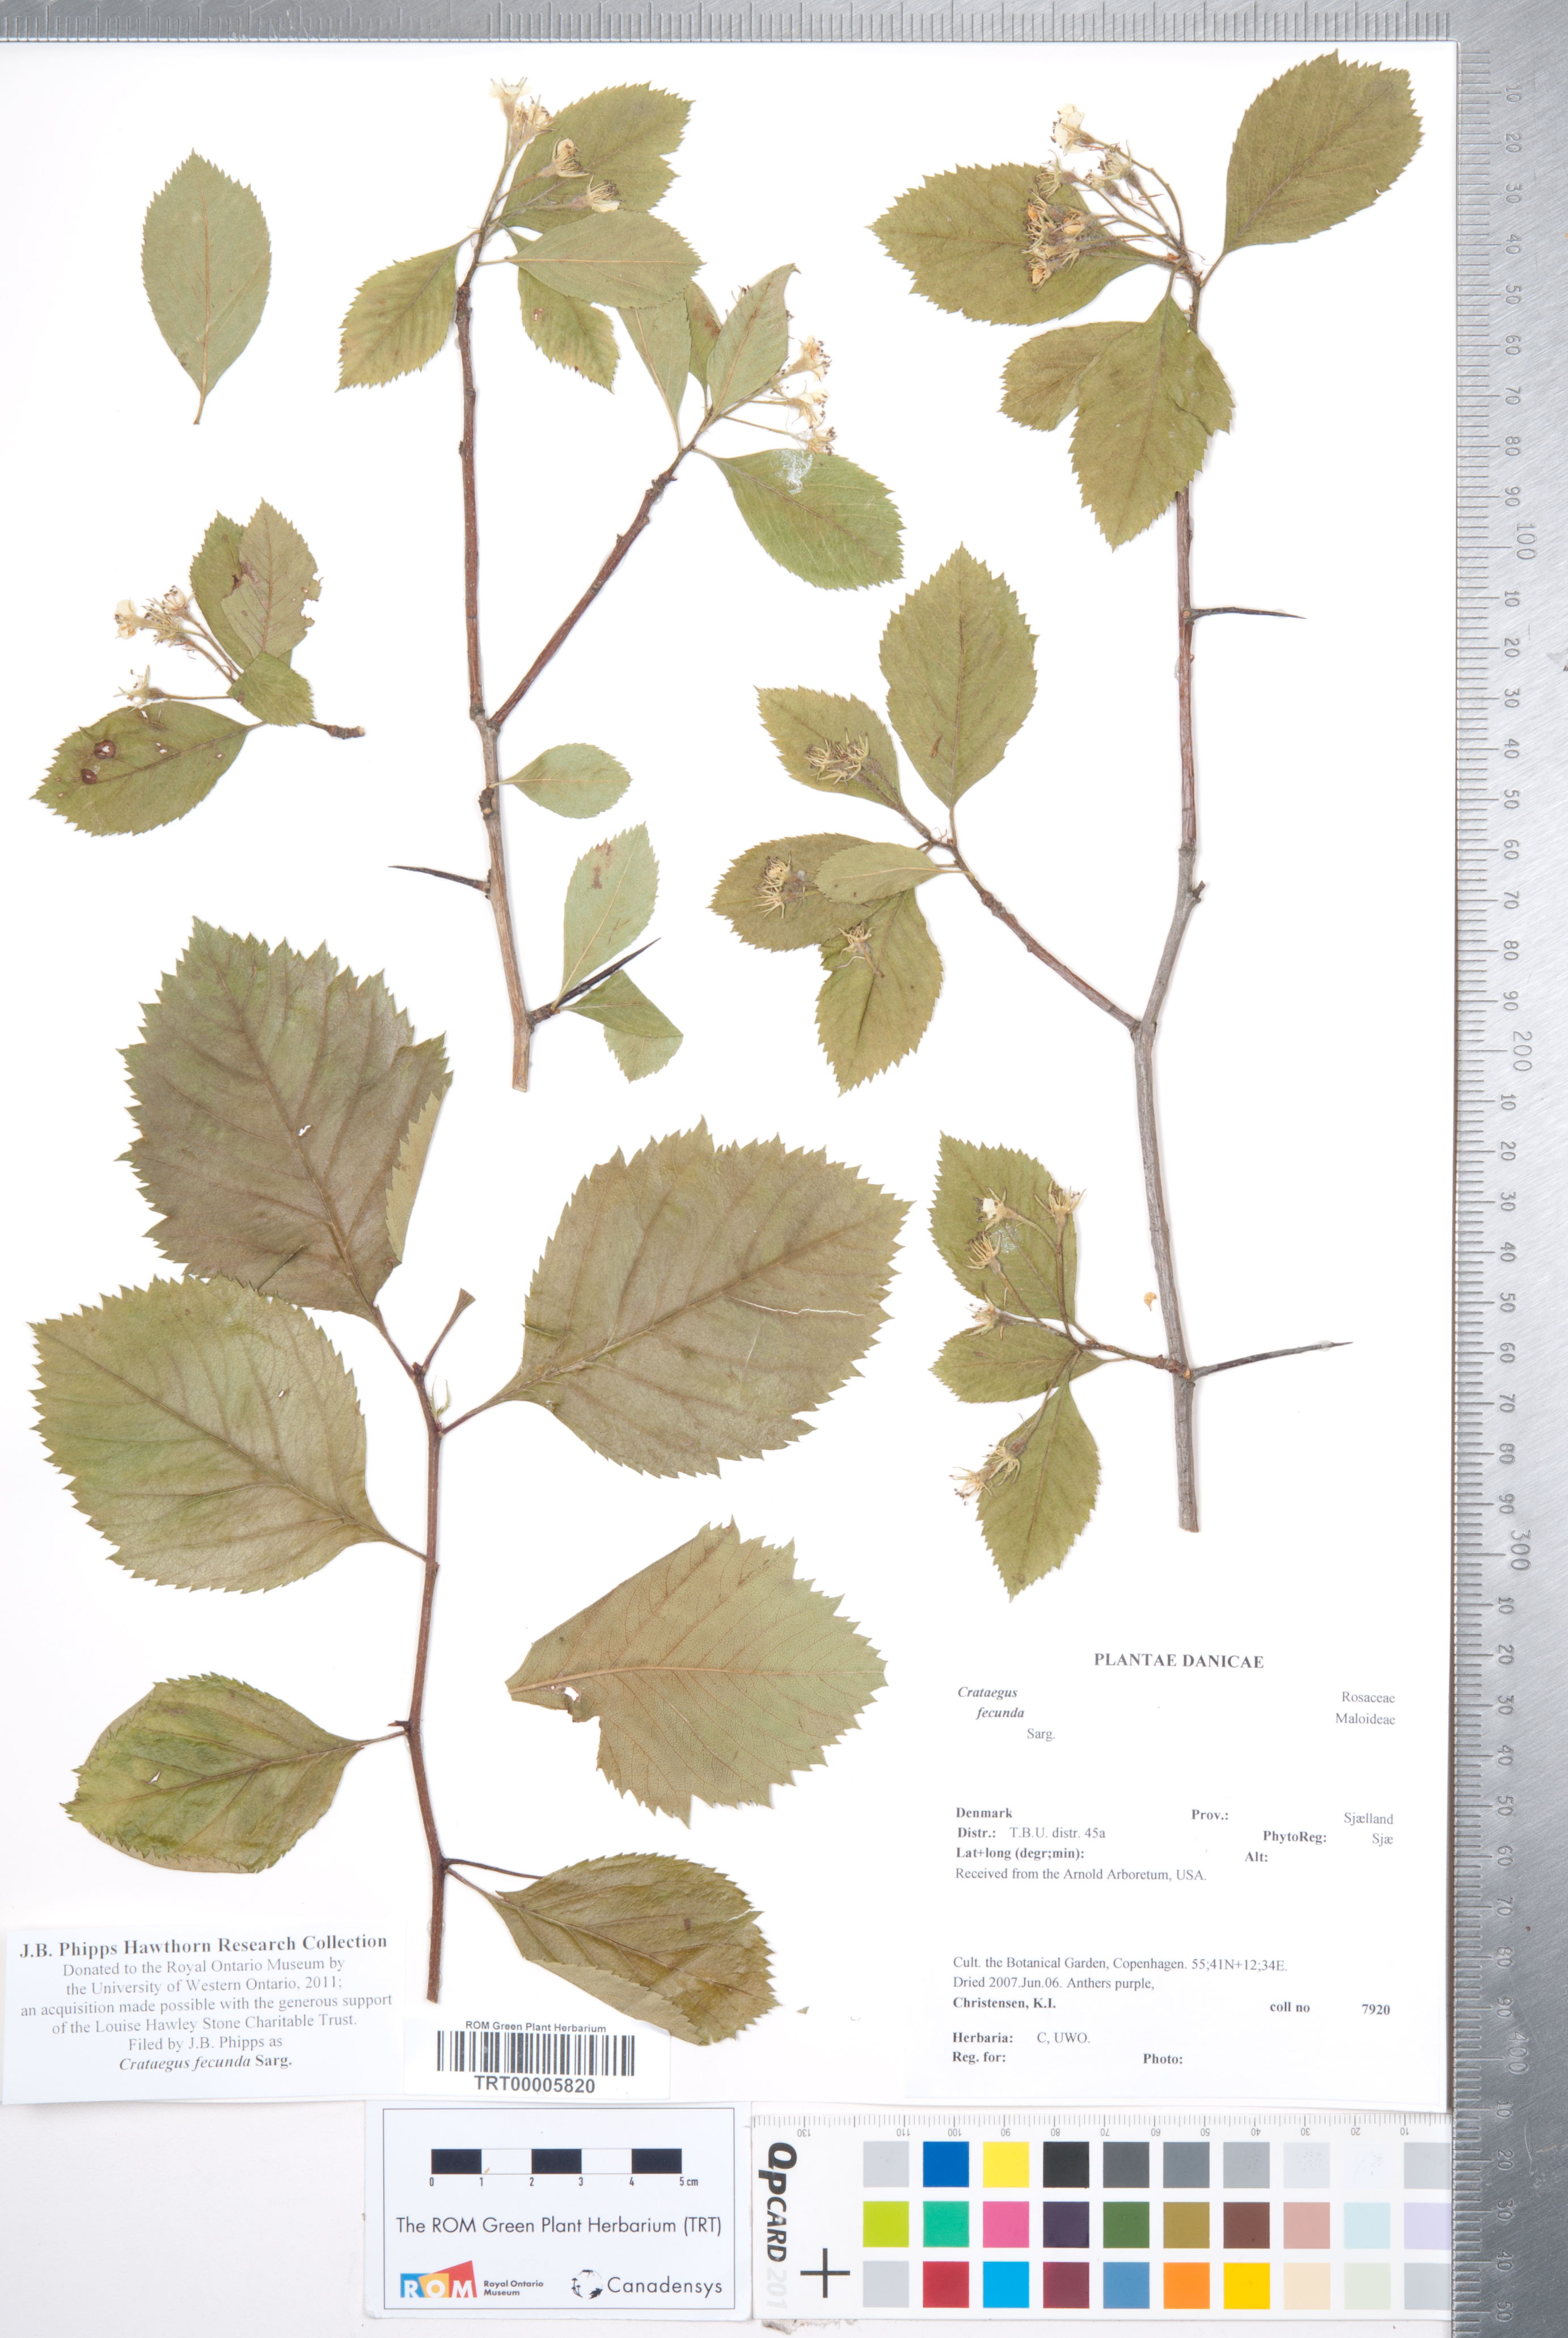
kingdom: Plantae
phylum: Tracheophyta
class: Magnoliopsida
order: Rosales
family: Rosaceae
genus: Crataegus
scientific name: Crataegus fecunda
